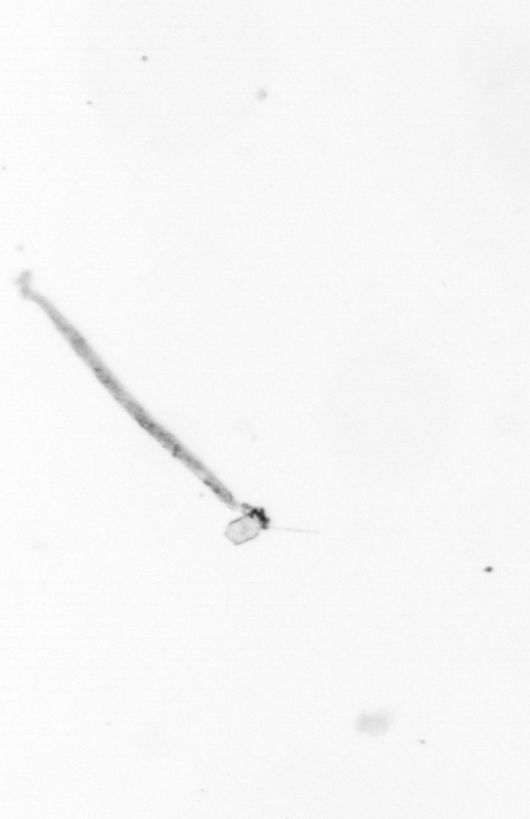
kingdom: Chromista
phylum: Ochrophyta
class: Bacillariophyceae
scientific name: Bacillariophyceae
